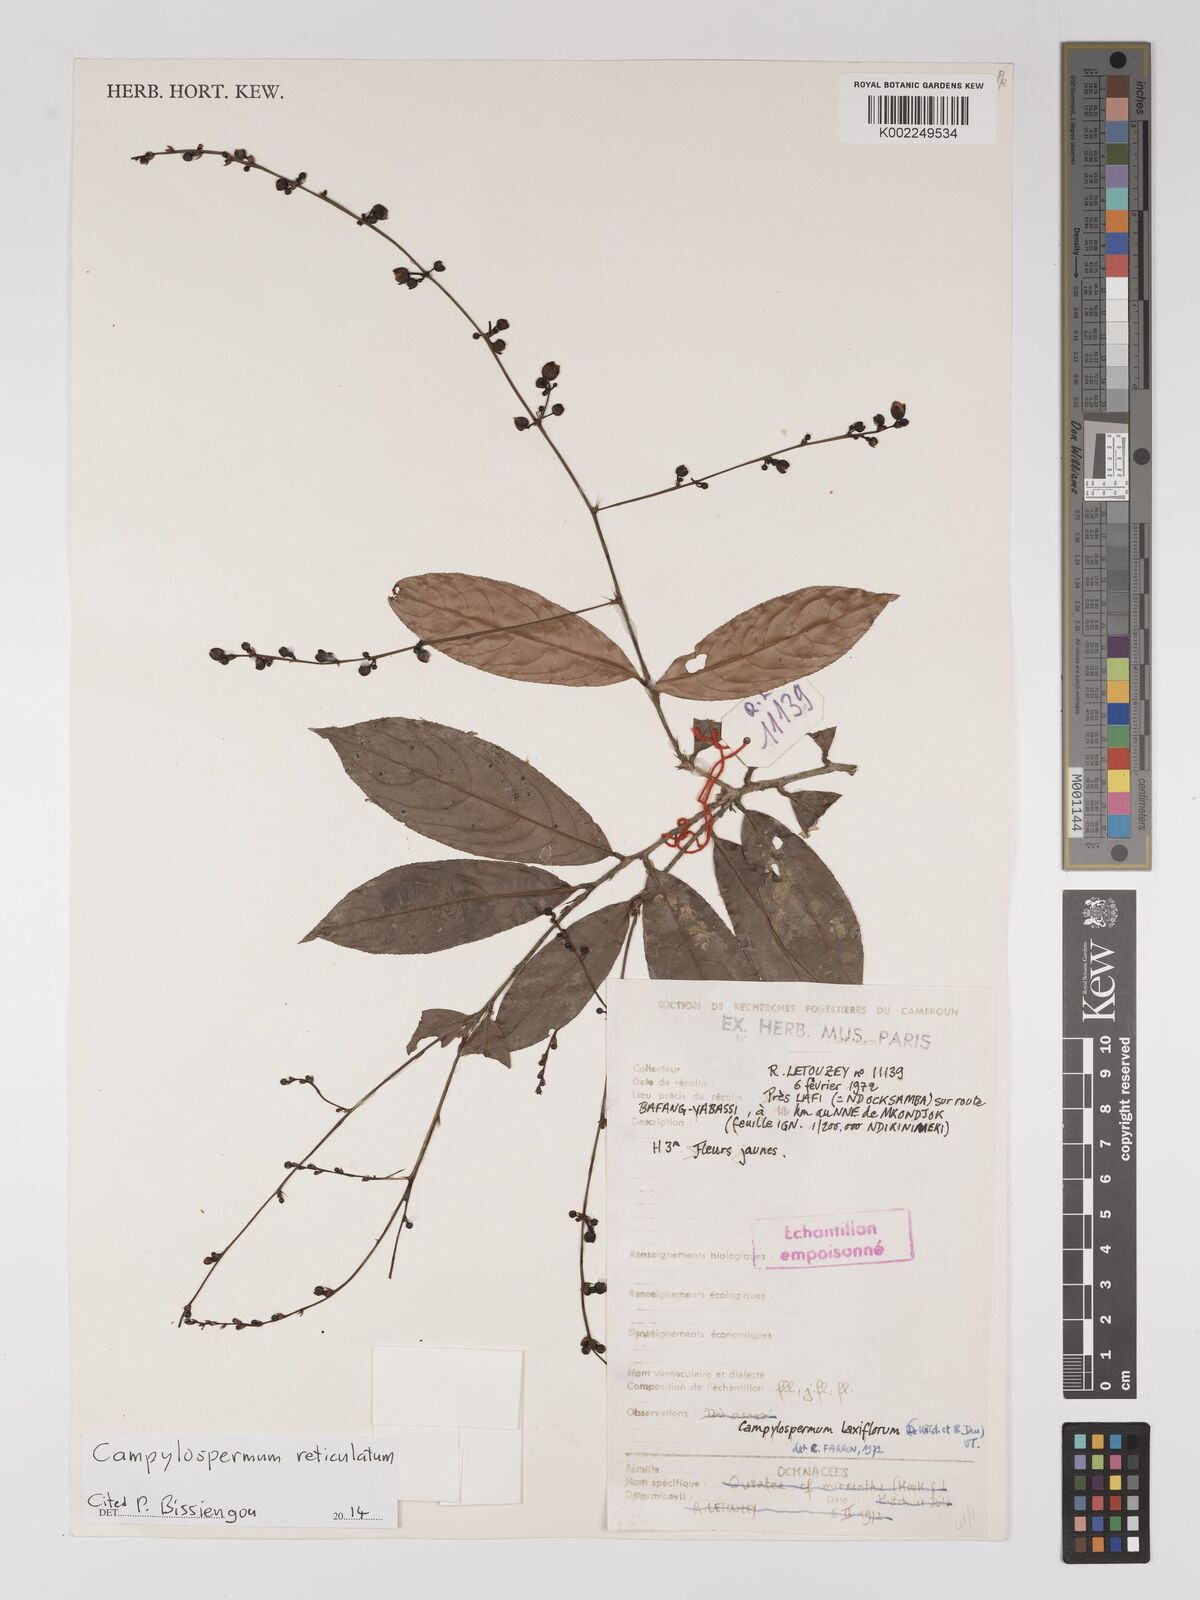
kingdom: Plantae
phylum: Tracheophyta
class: Magnoliopsida
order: Malpighiales
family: Ochnaceae
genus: Campylospermum
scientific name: Campylospermum reticulatum
